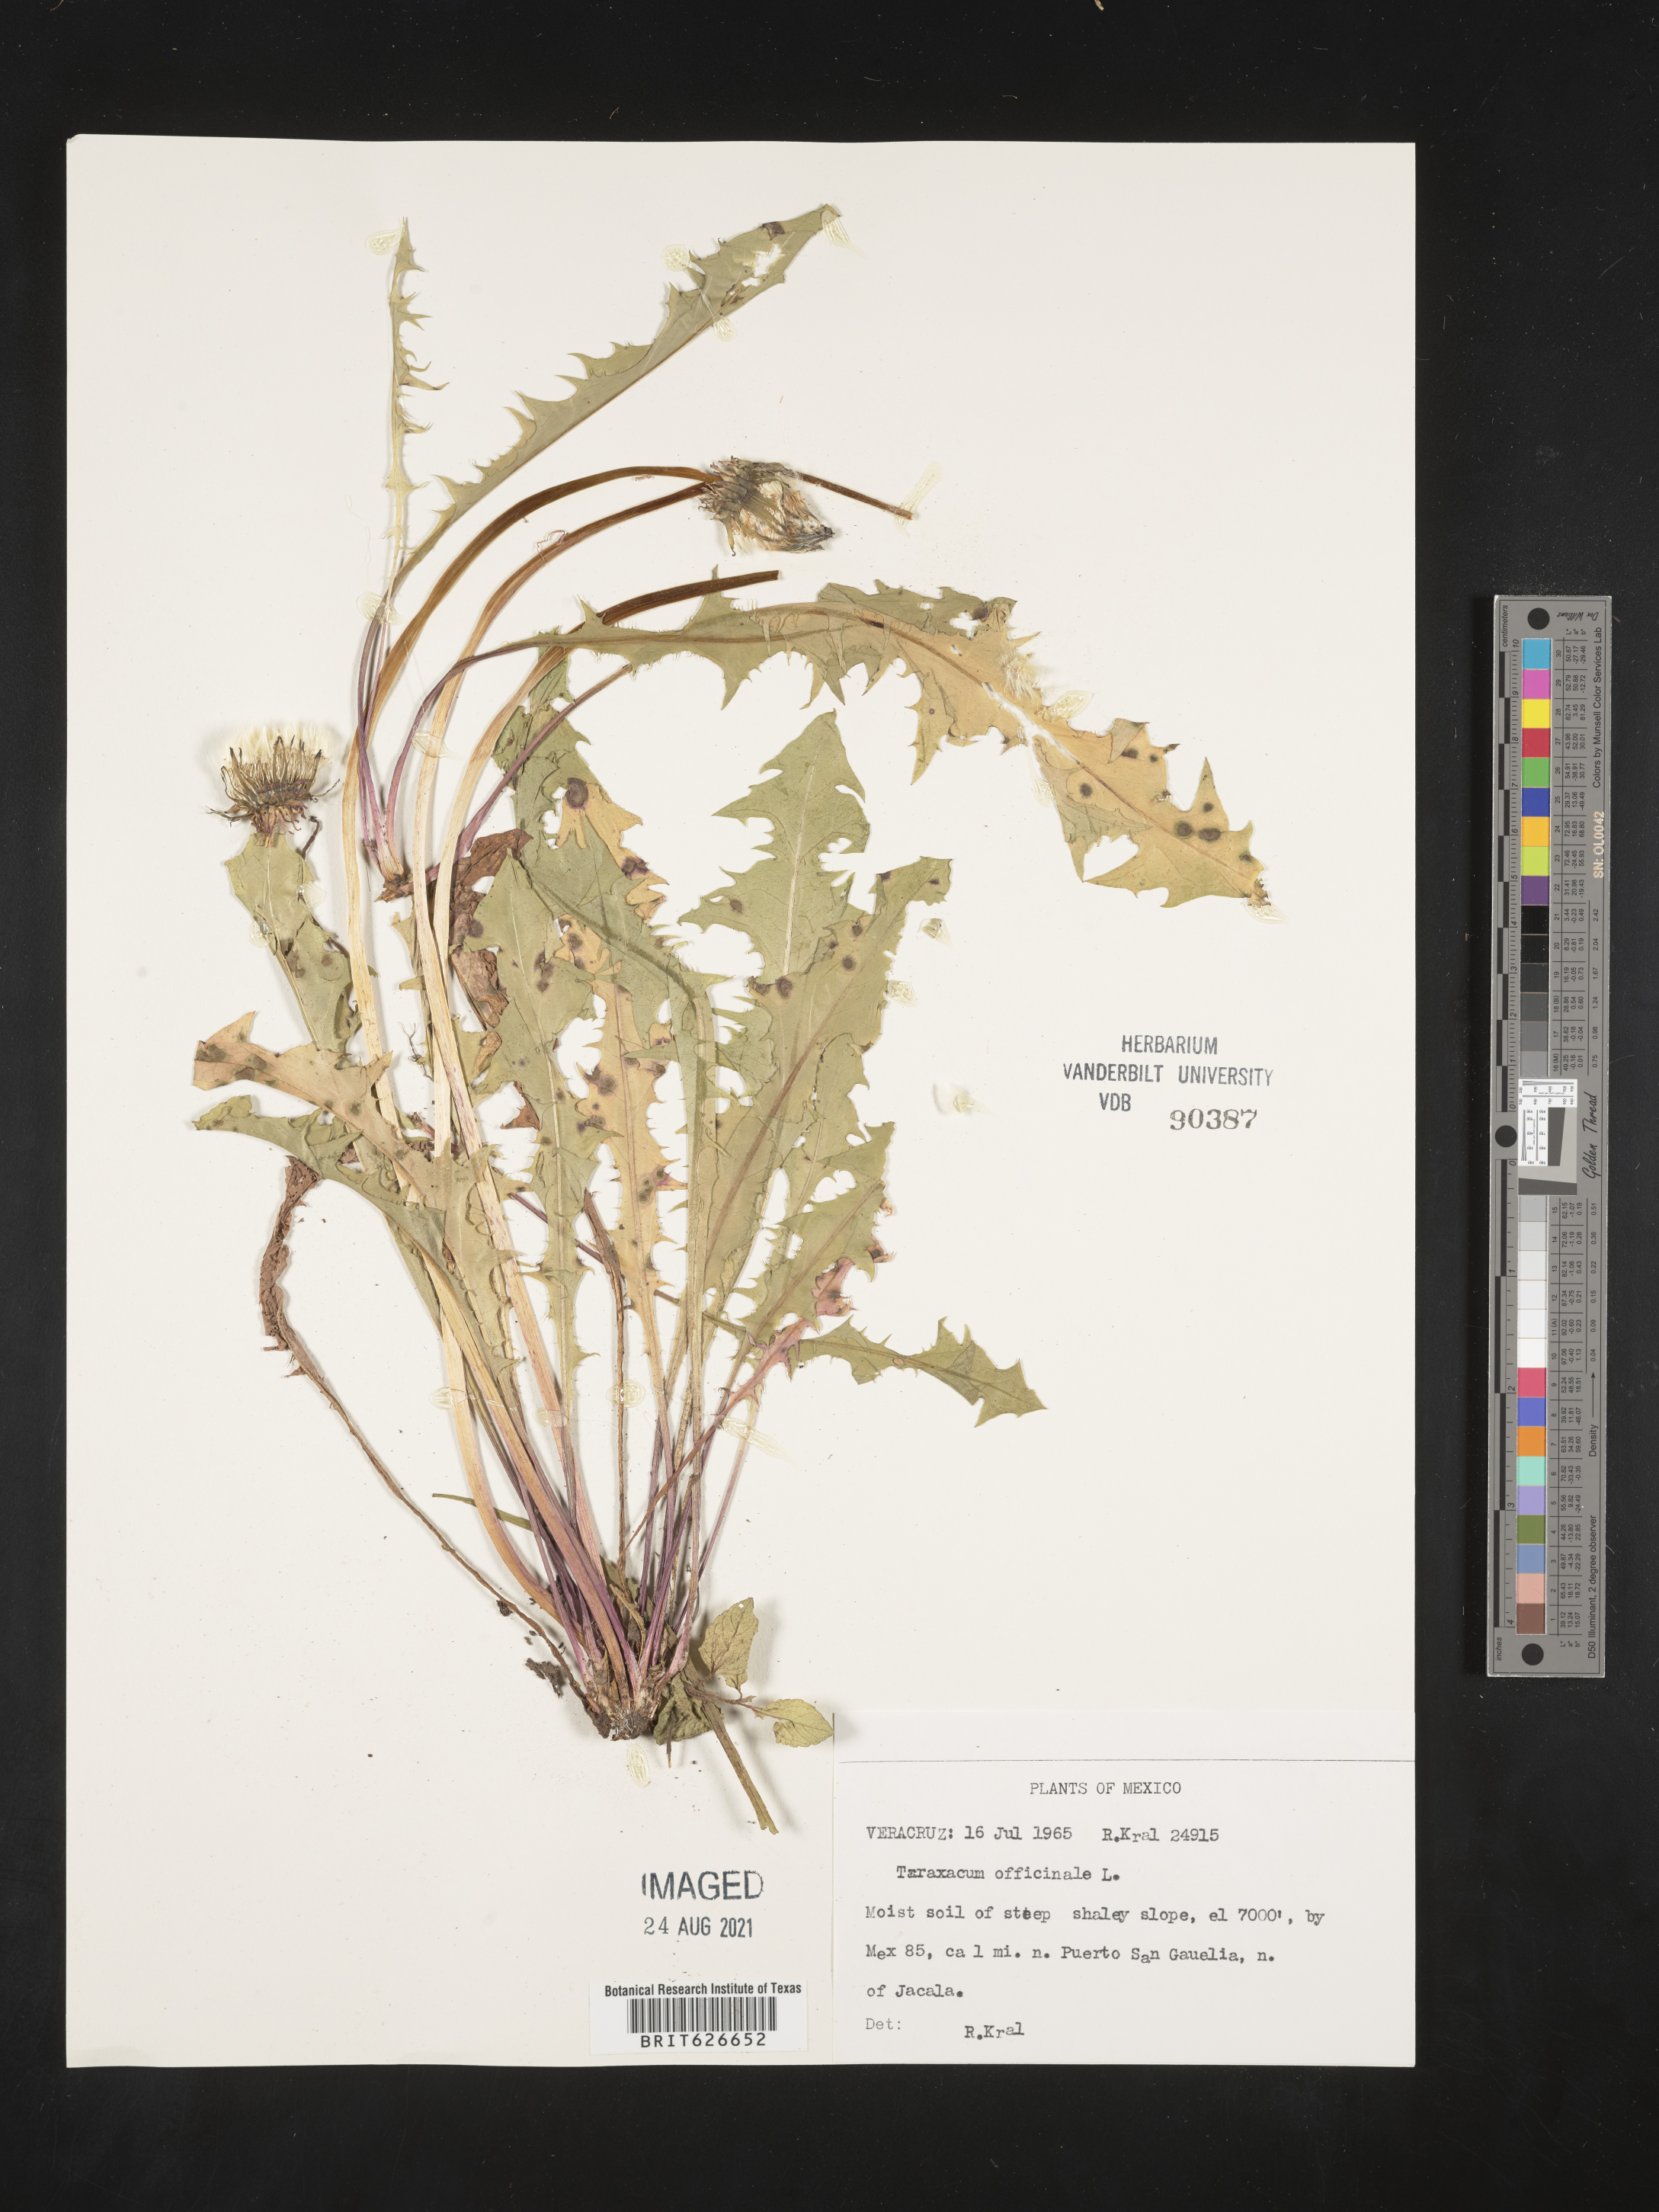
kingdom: Plantae
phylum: Tracheophyta
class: Magnoliopsida
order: Asterales
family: Asteraceae
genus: Taraxacum
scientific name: Taraxacum
